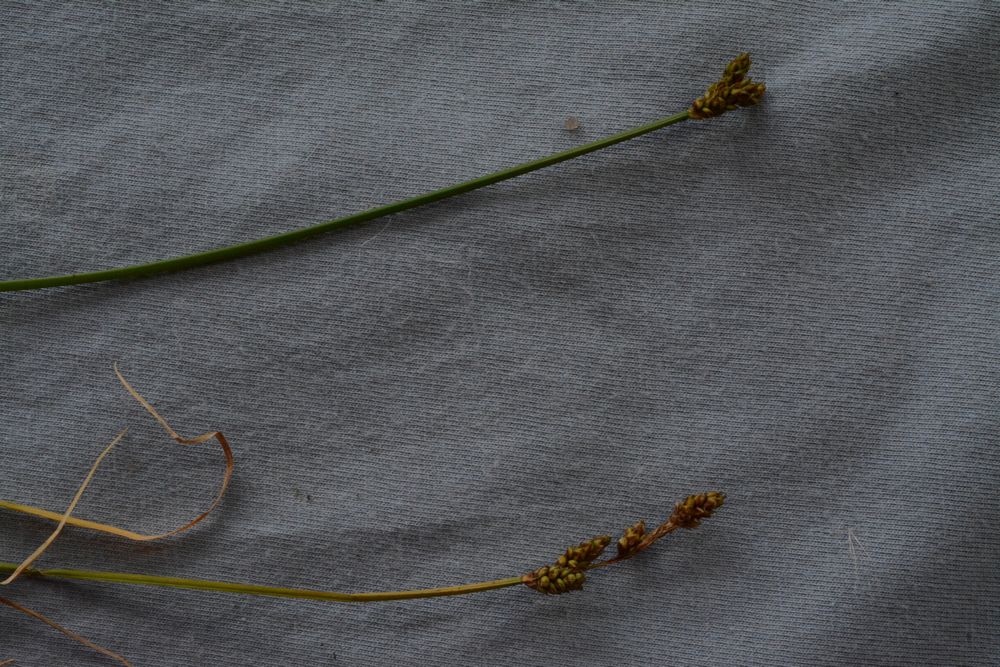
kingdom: Plantae
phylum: Tracheophyta
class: Liliopsida
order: Poales
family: Cyperaceae
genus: Carex
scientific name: Carex mackenziei
